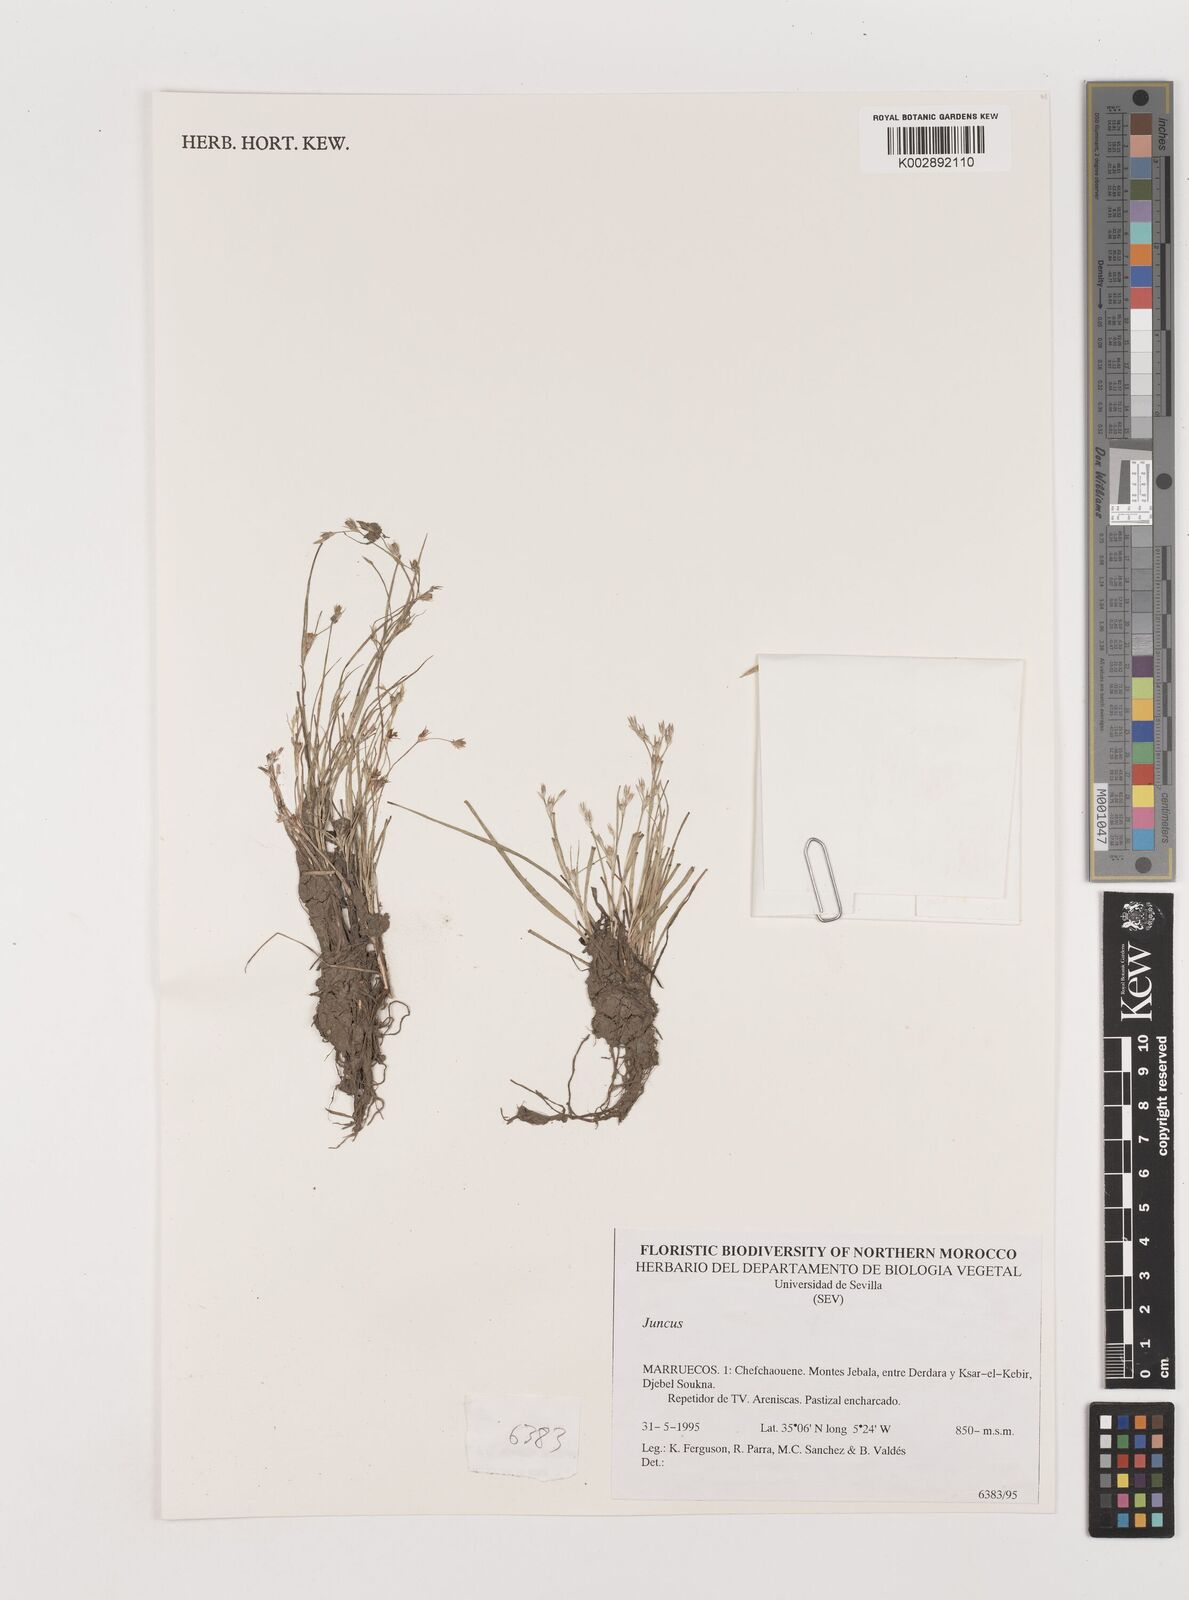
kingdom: Plantae
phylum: Tracheophyta
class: Liliopsida
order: Poales
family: Juncaceae
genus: Juncus
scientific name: Juncus
